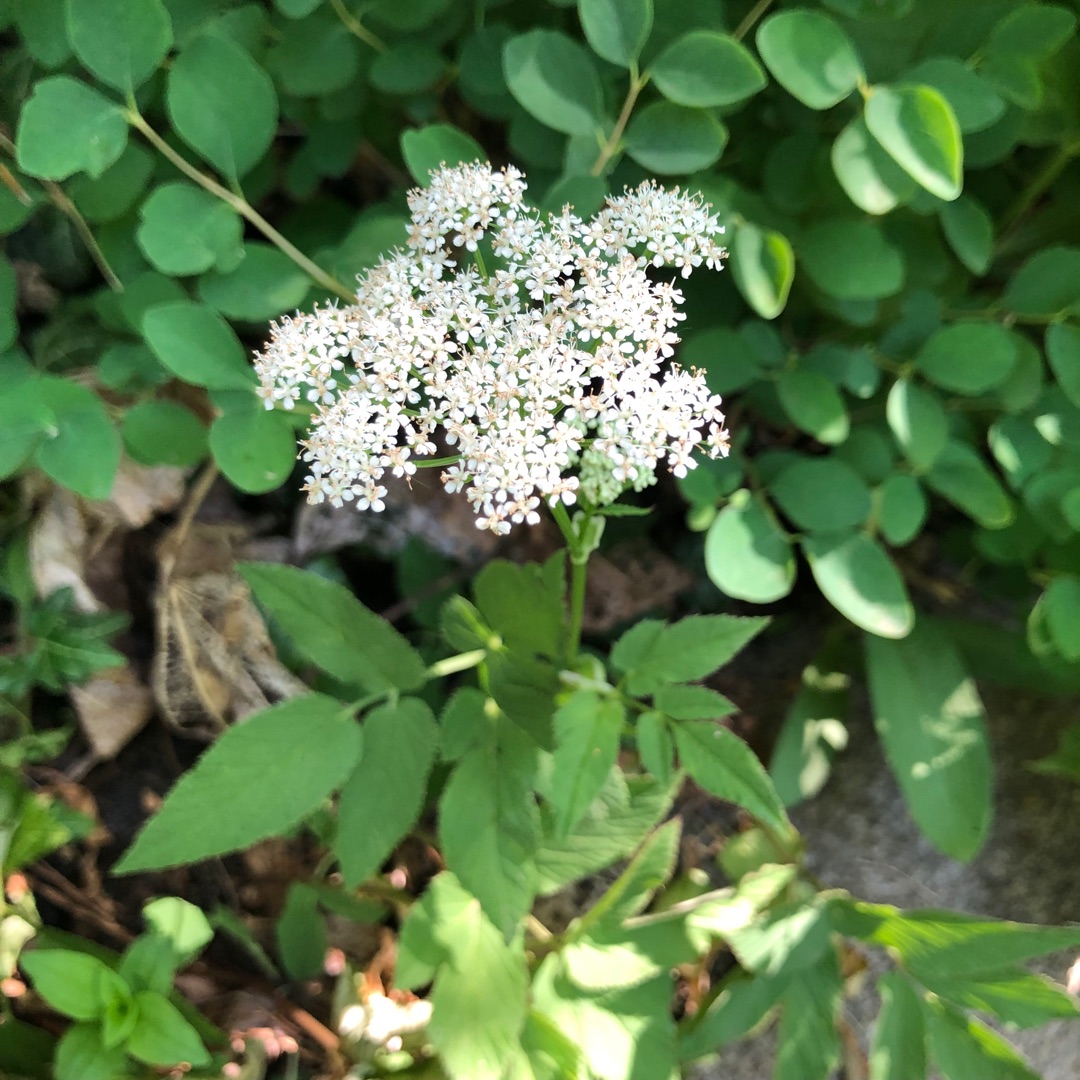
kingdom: Plantae
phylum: Tracheophyta
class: Magnoliopsida
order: Apiales
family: Apiaceae
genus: Aegopodium
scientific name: Aegopodium podagraria
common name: Skvalderkål
